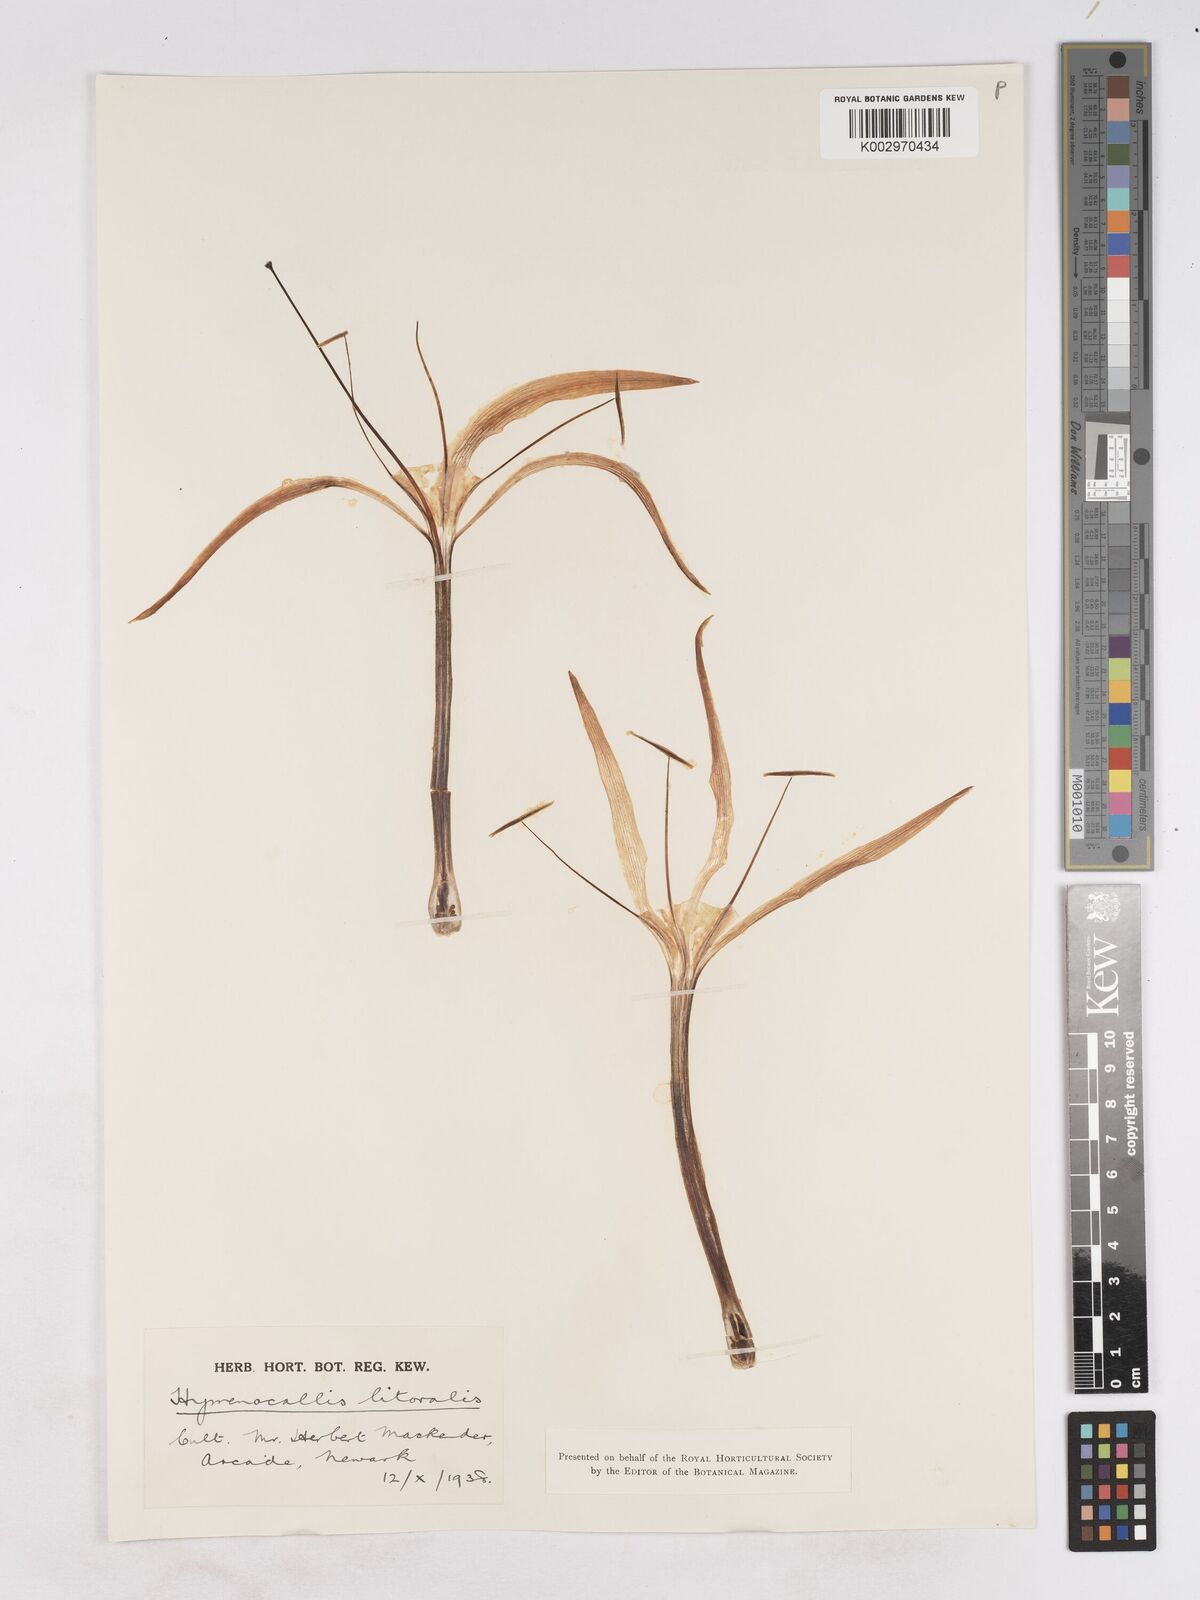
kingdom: Plantae
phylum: Tracheophyta
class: Liliopsida
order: Asparagales
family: Amaryllidaceae
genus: Hymenocallis
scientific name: Hymenocallis acutifolia
